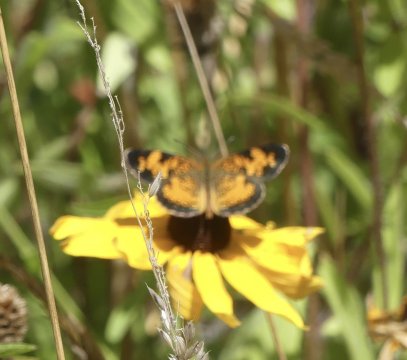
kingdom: Animalia
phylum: Arthropoda
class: Insecta
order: Lepidoptera
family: Nymphalidae
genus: Phyciodes
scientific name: Phyciodes tharos
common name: Pearl Crescent
